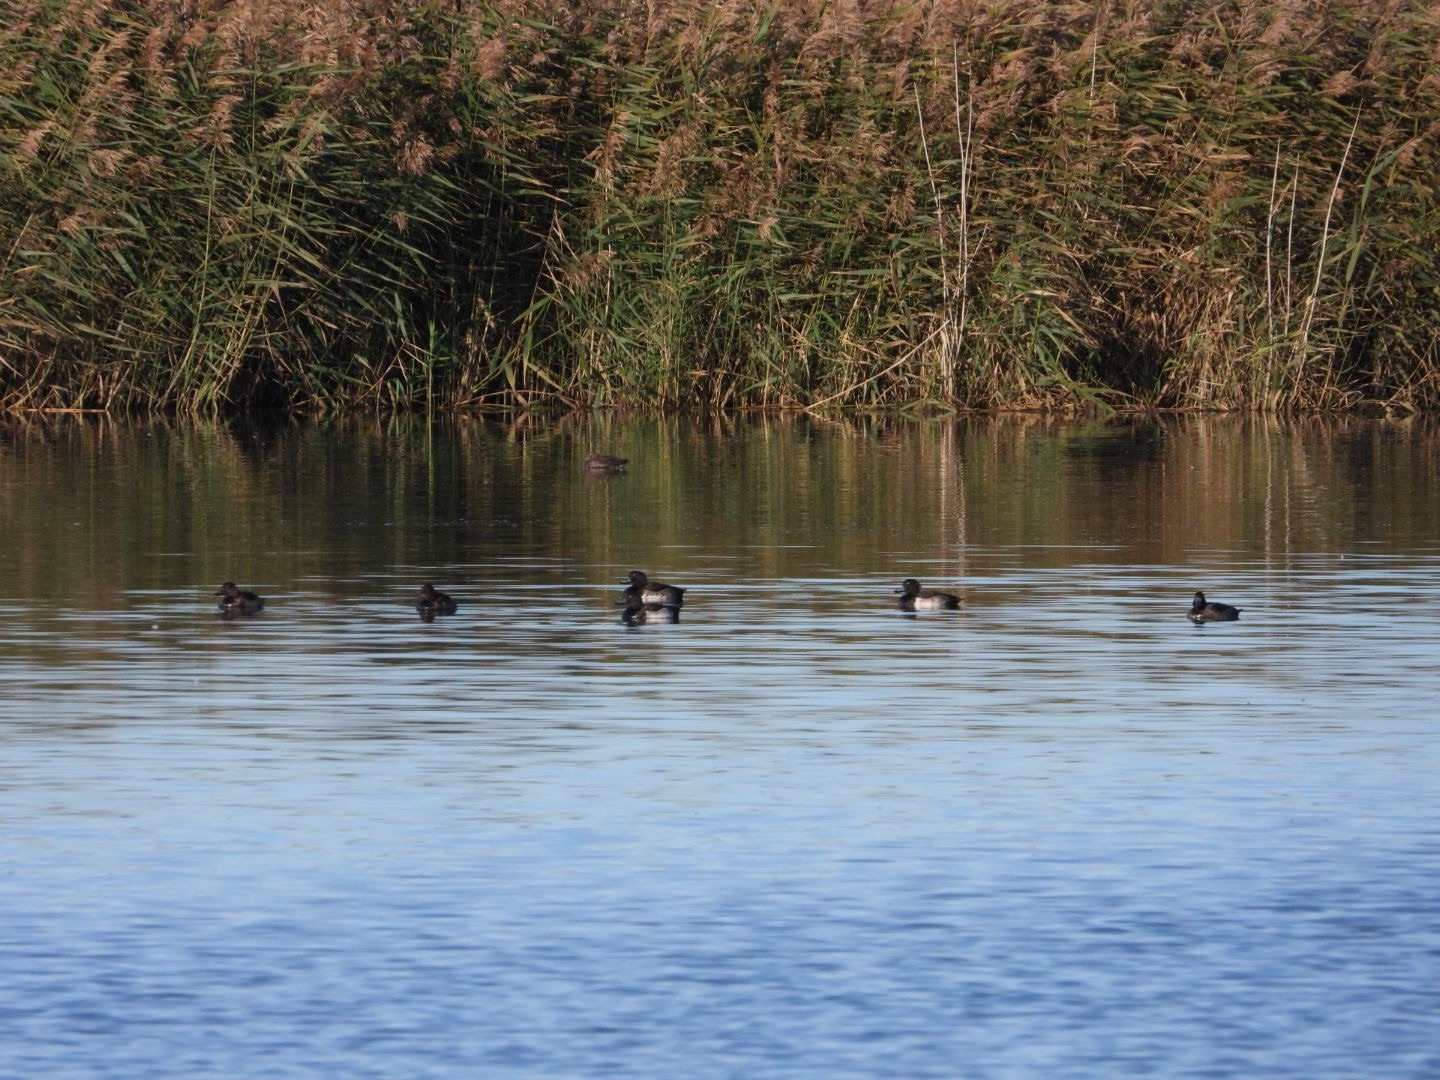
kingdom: Animalia
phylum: Chordata
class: Aves
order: Anseriformes
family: Anatidae
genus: Aythya
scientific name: Aythya fuligula
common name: Troldand
